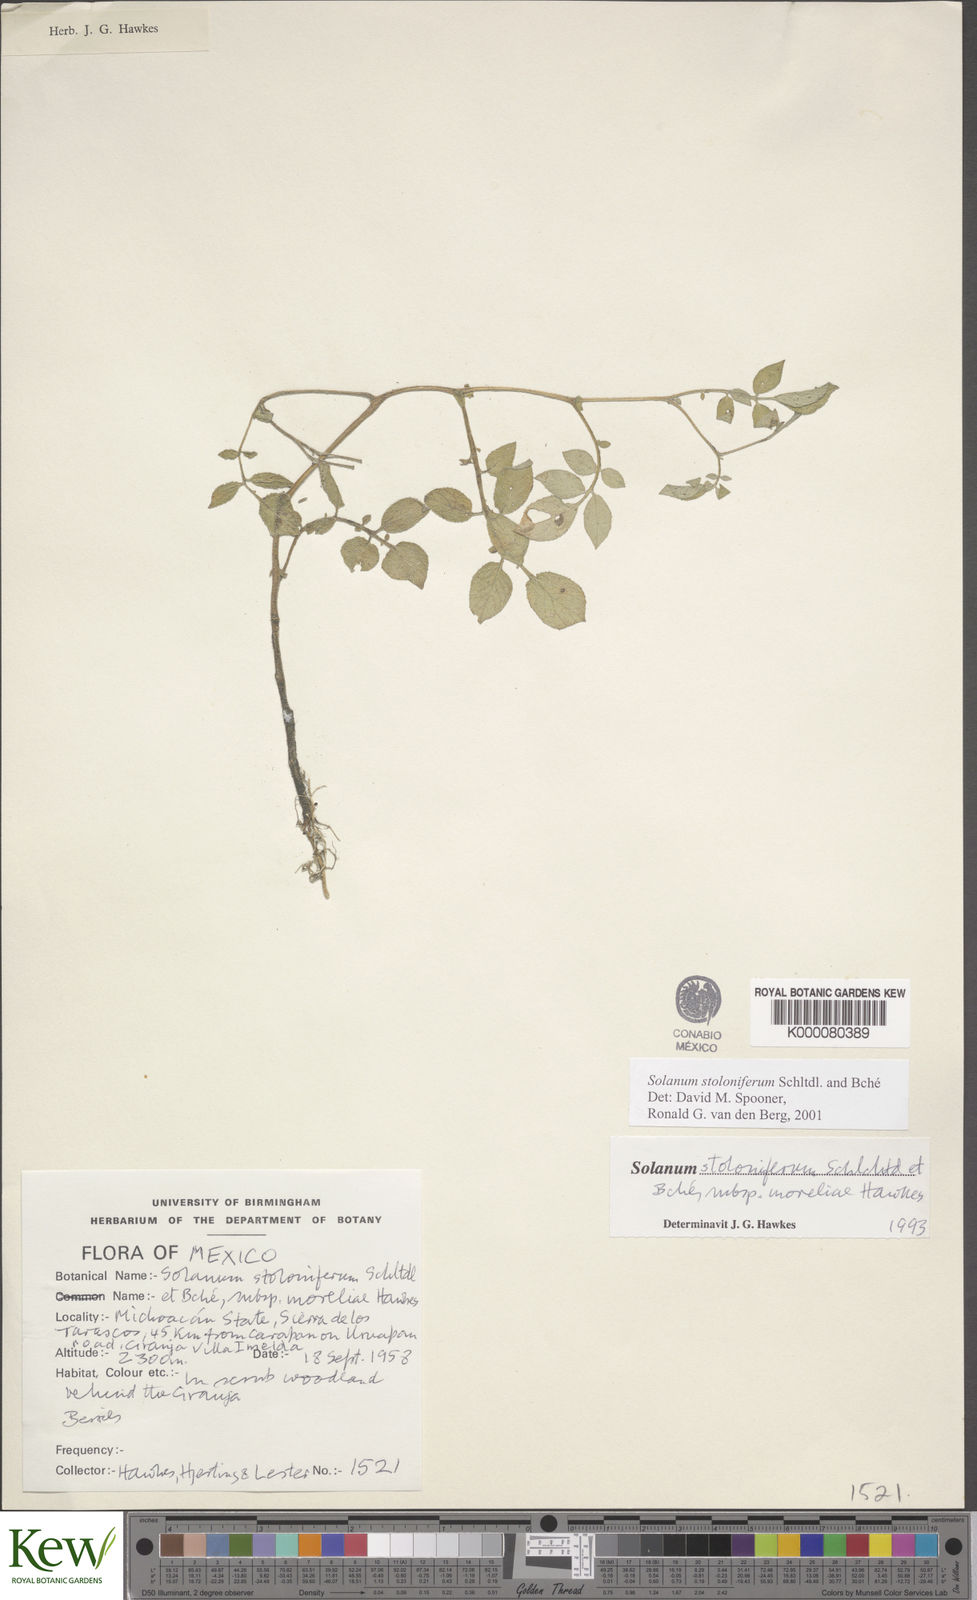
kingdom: Plantae
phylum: Tracheophyta
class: Magnoliopsida
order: Solanales
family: Solanaceae
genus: Solanum
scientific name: Solanum stoloniferum
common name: Fendler's nighshade
